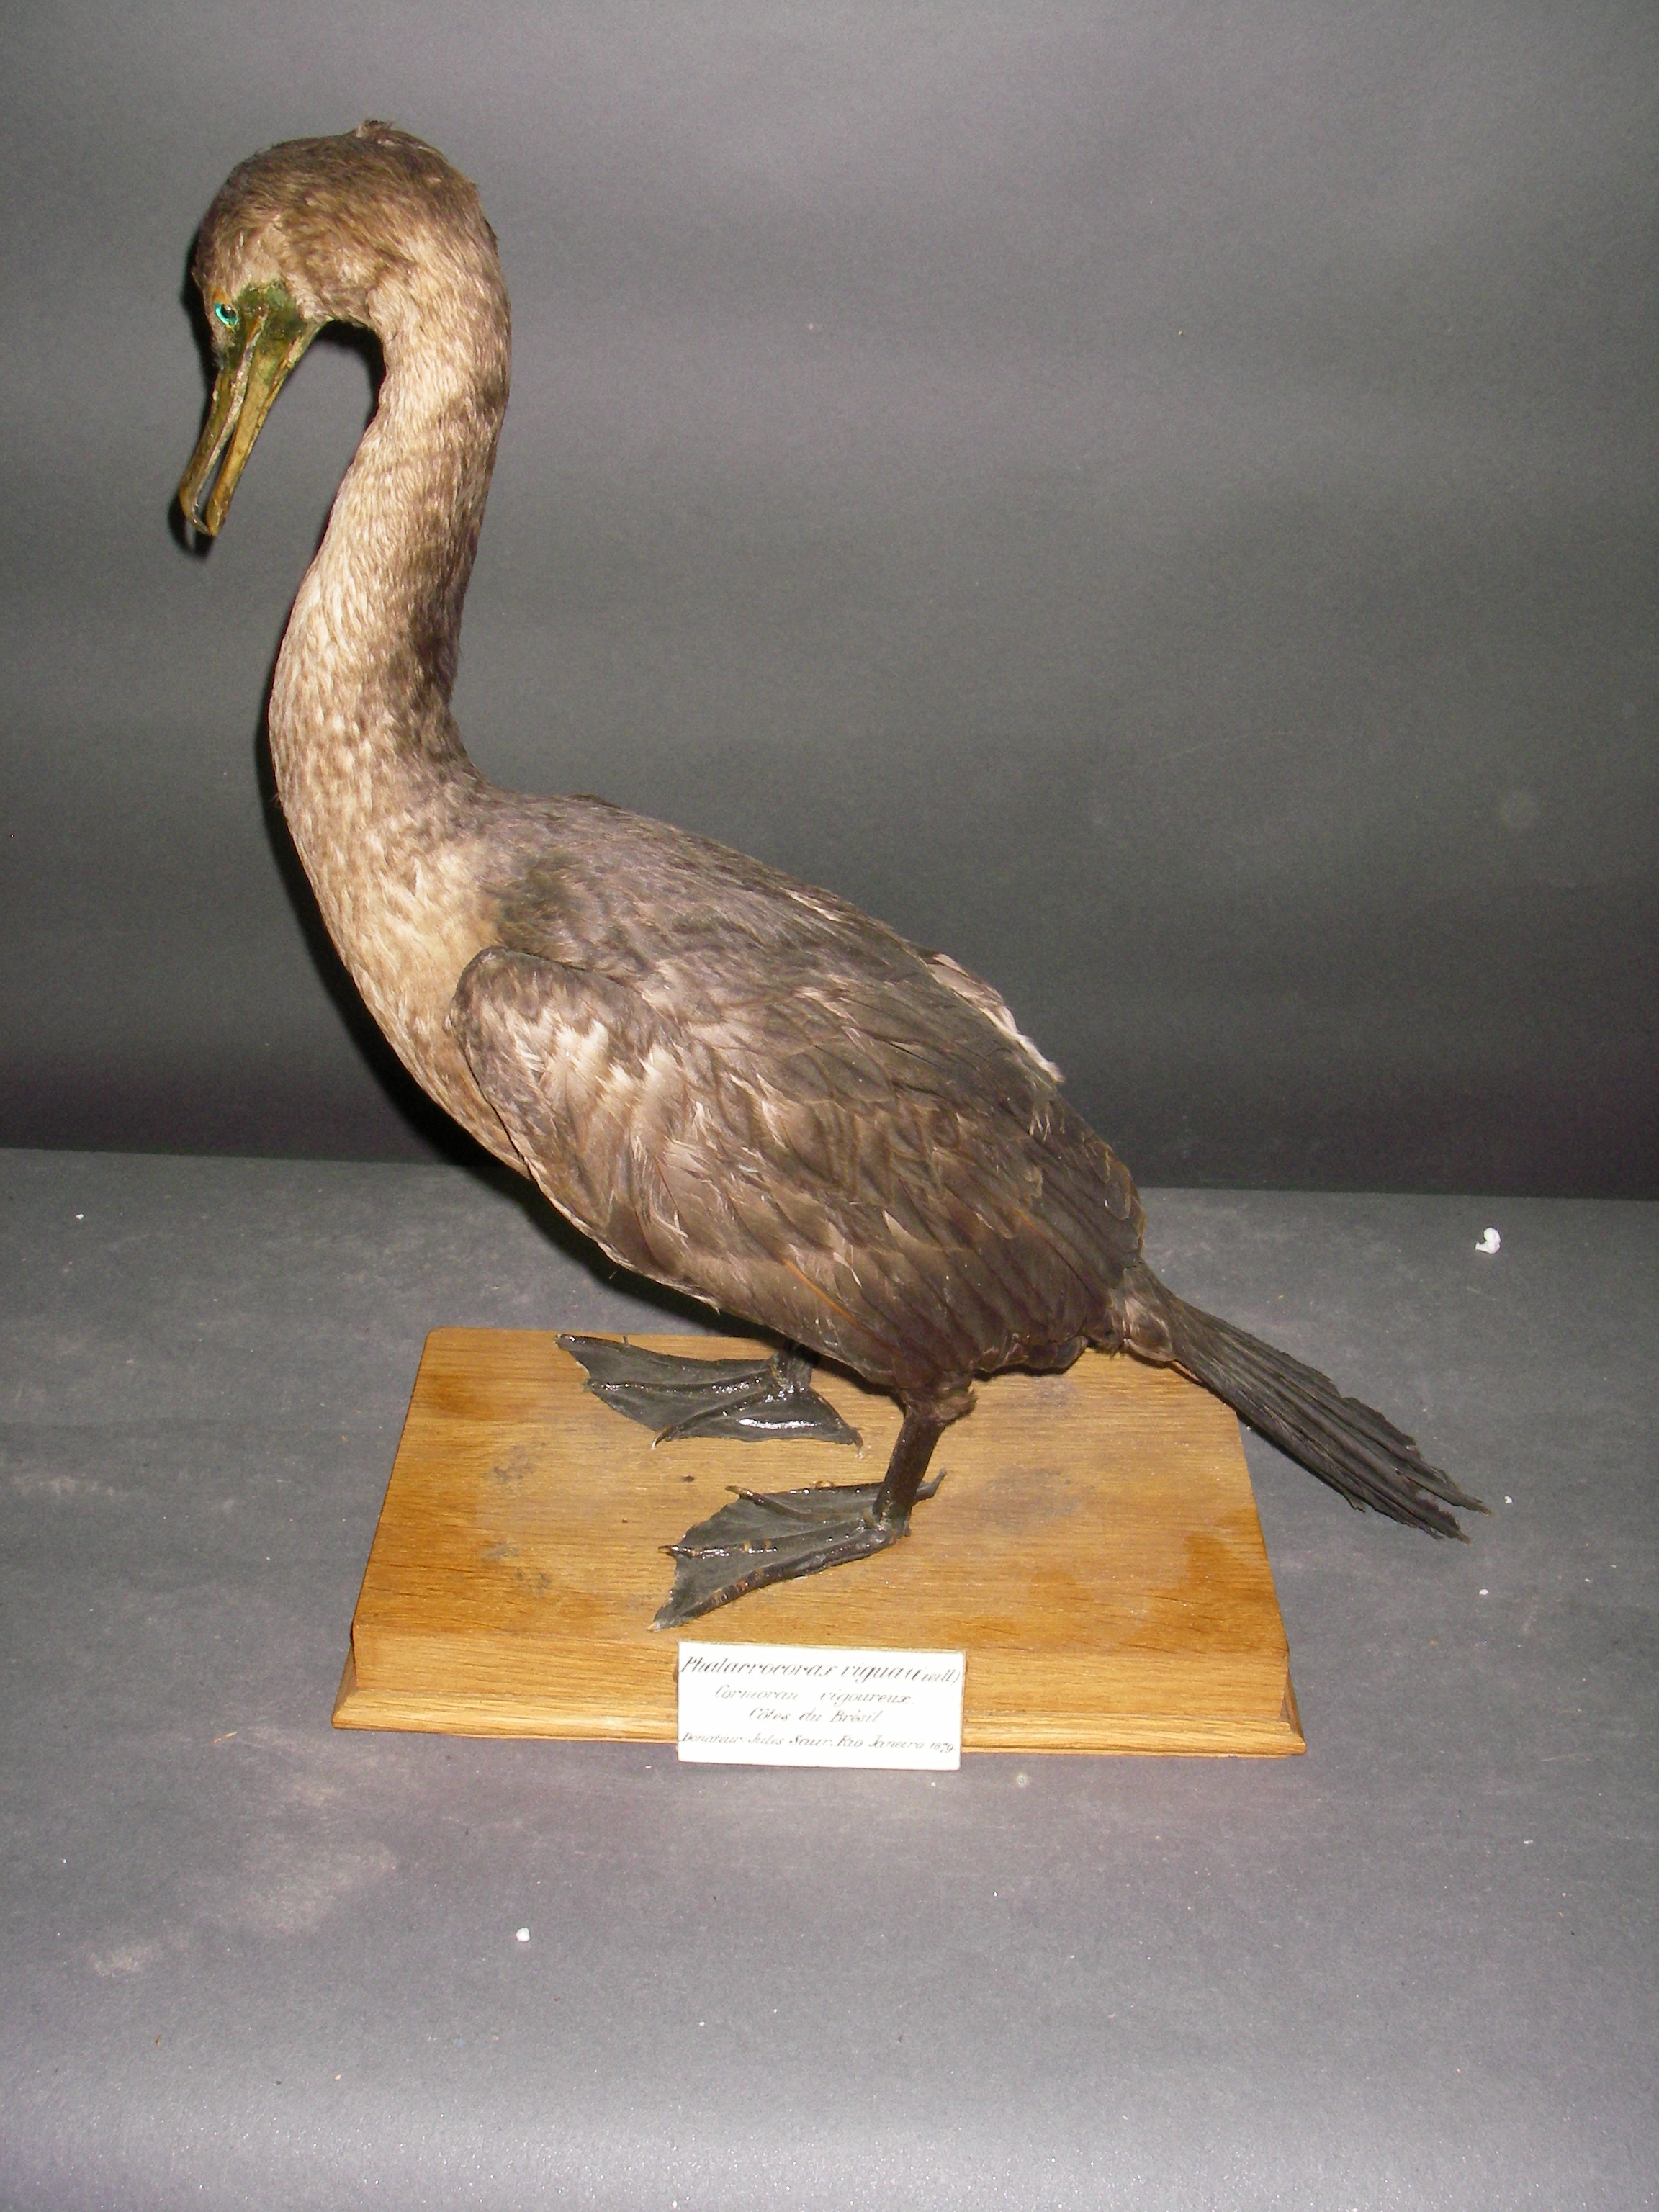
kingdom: Animalia
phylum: Chordata
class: Aves
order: Suliformes
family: Phalacrocoracidae
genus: Phalacrocorax
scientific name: Phalacrocorax brasilianus
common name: Neotropic cormorant
